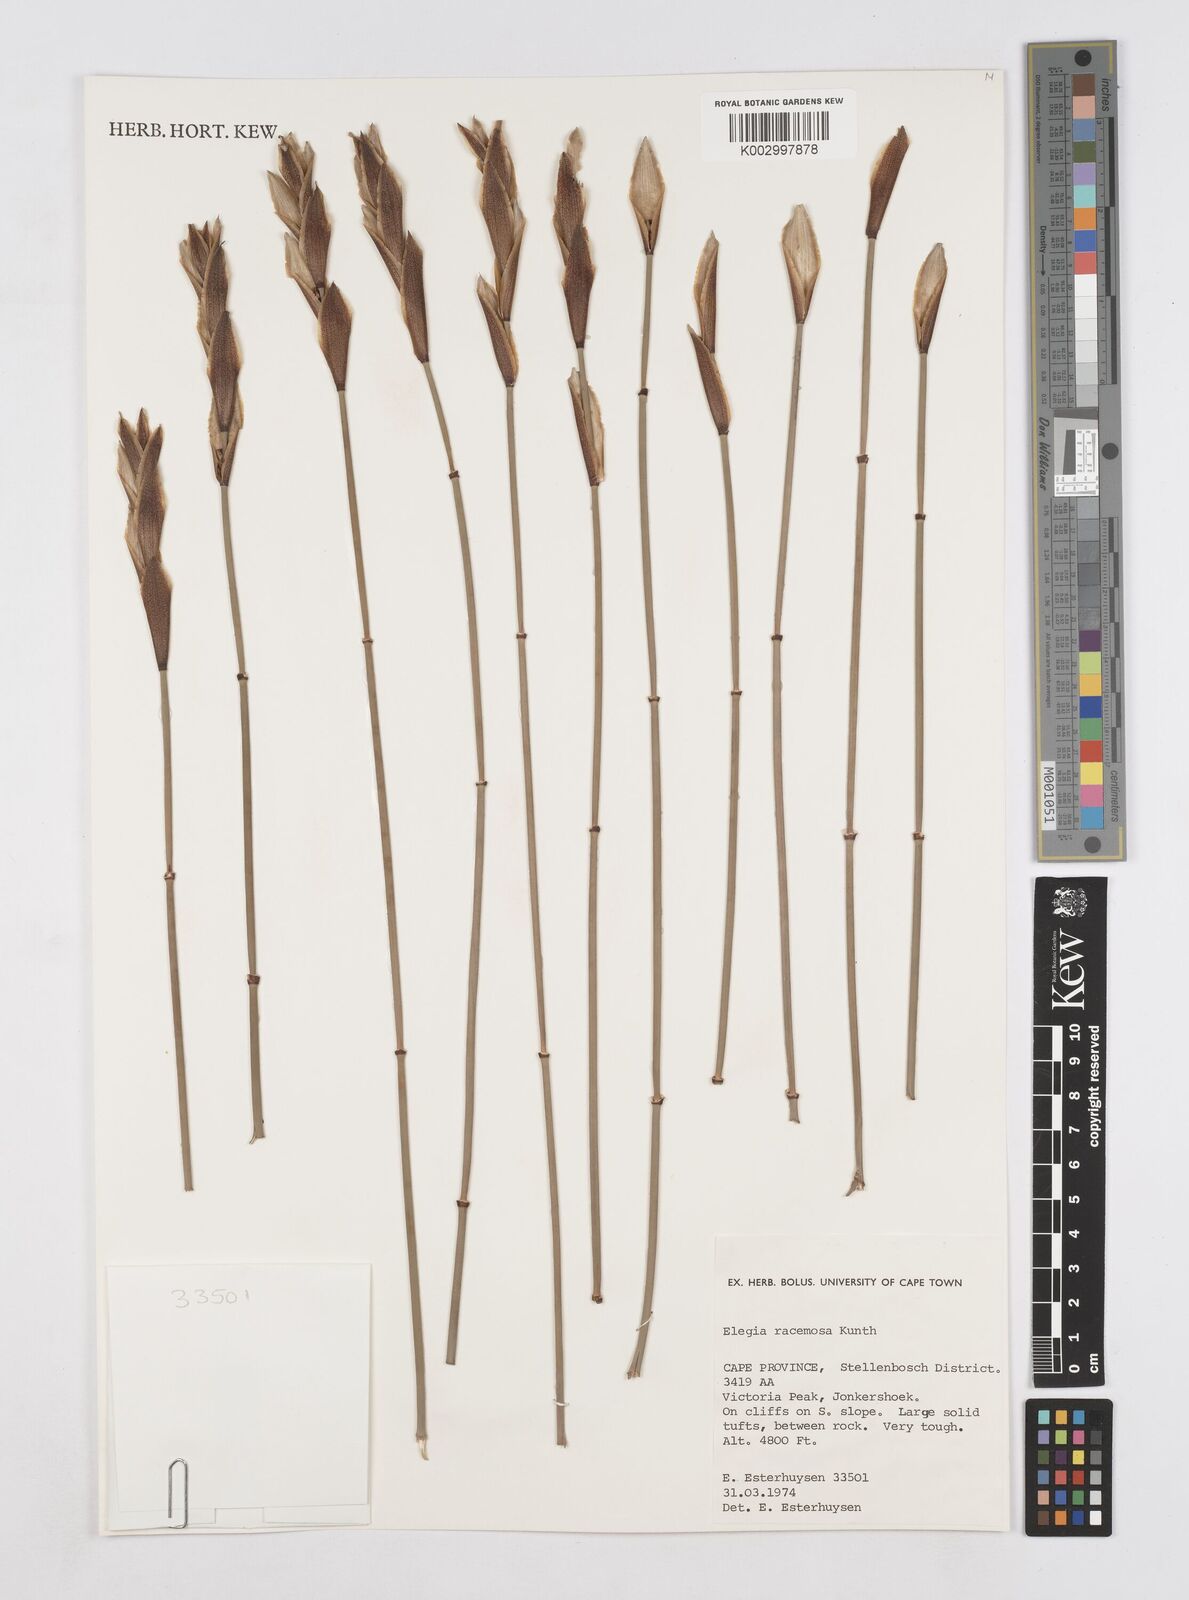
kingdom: Plantae
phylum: Tracheophyta
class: Liliopsida
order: Poales
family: Restionaceae
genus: Elegia
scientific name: Elegia racemosa
